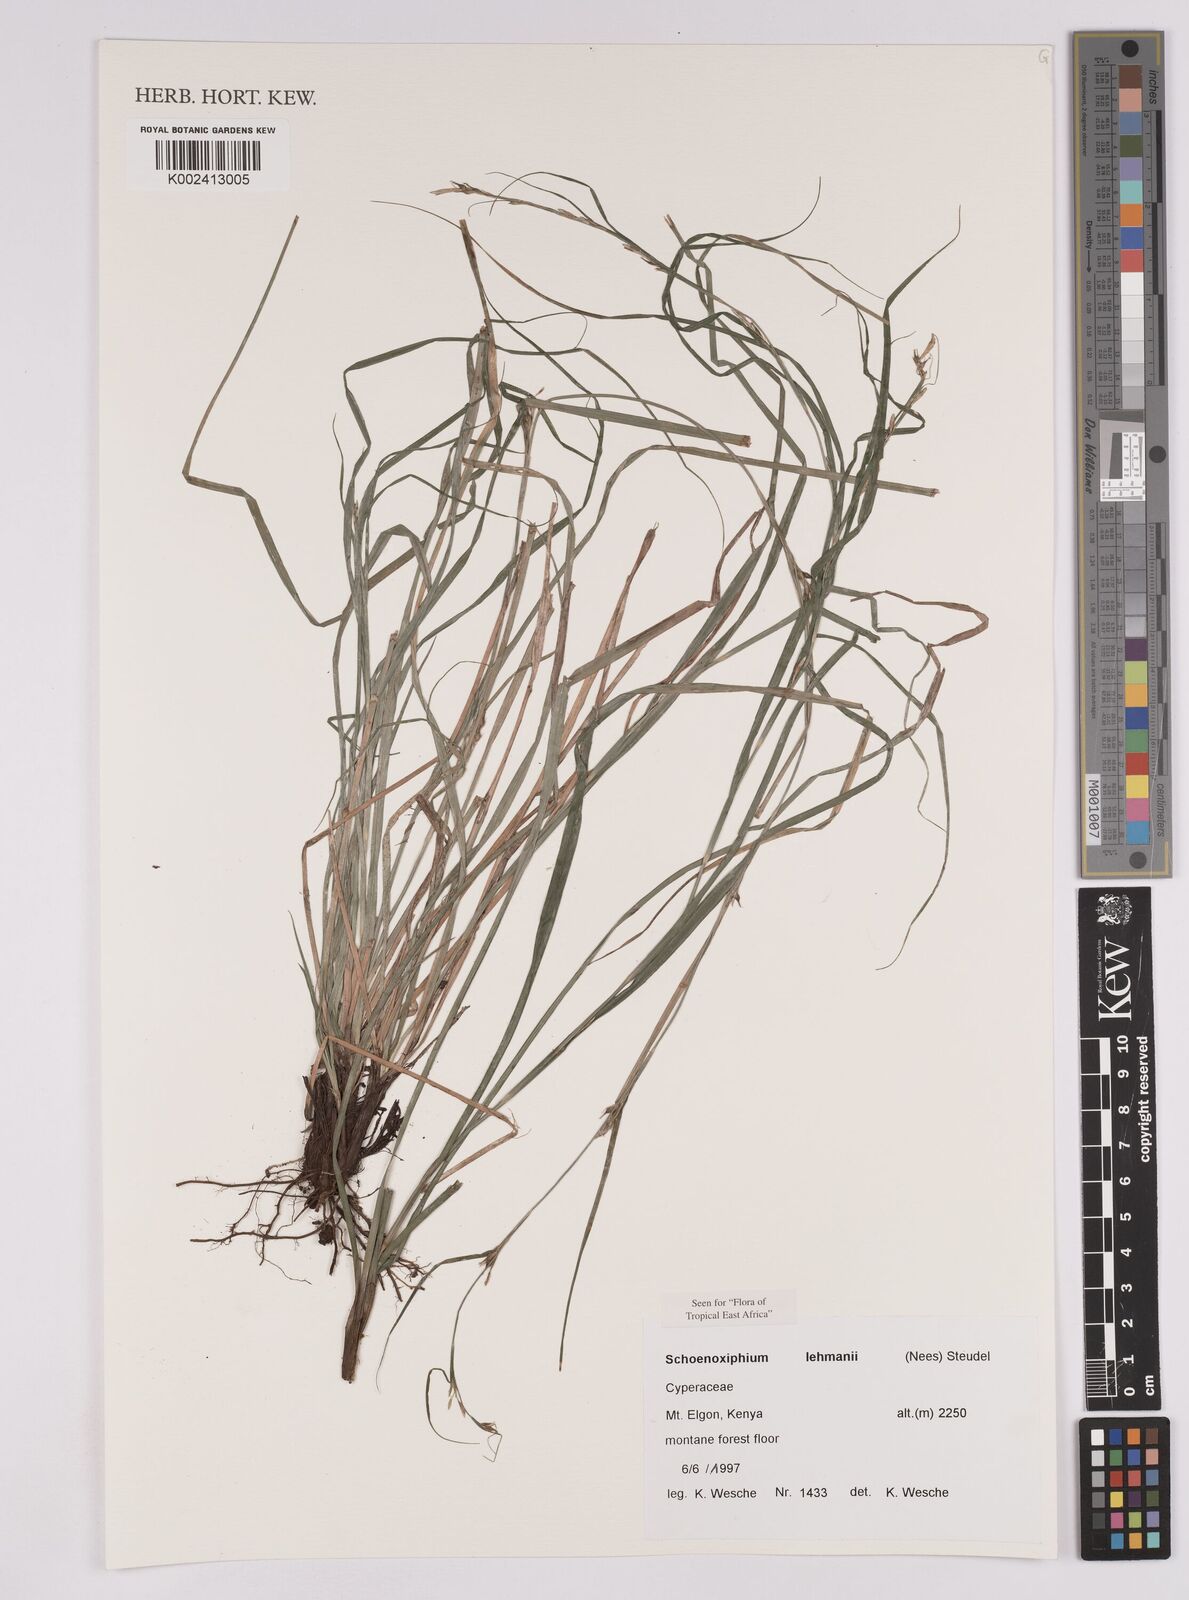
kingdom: Plantae
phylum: Tracheophyta
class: Liliopsida
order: Poales
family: Cyperaceae
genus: Carex
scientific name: Carex uhligii
